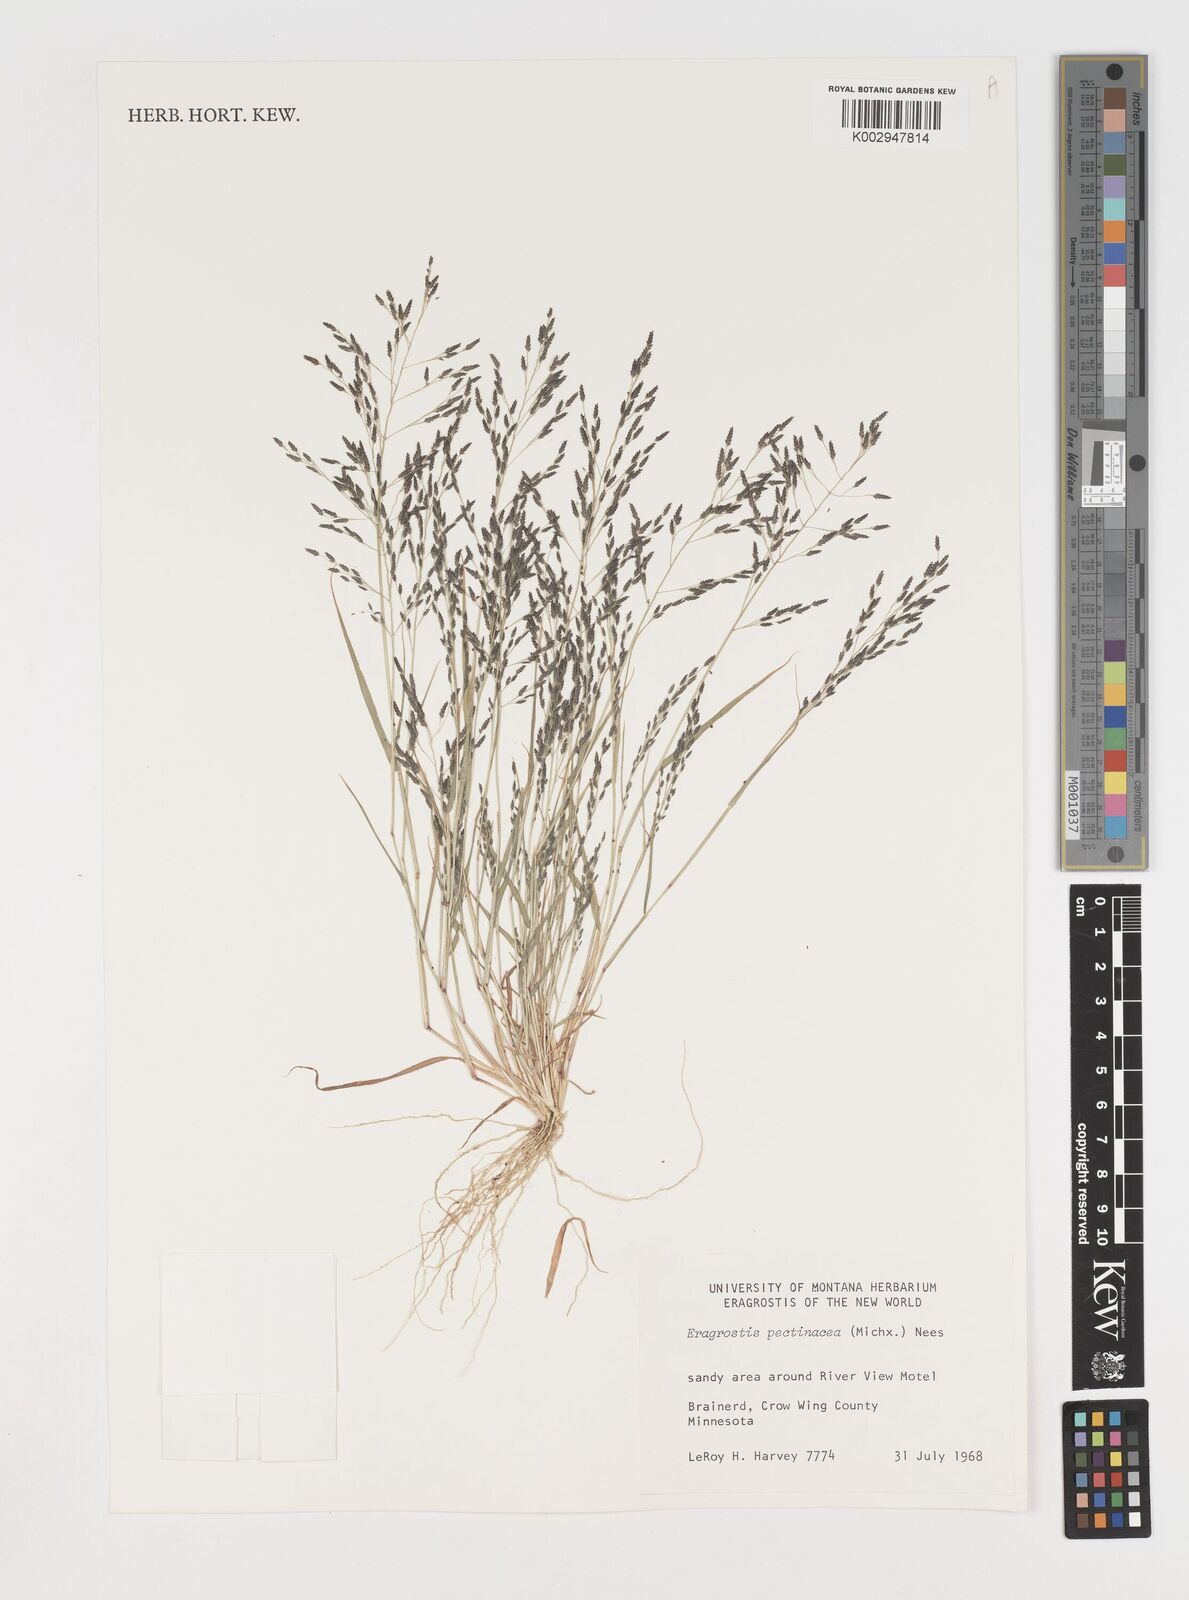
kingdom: Plantae
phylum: Tracheophyta
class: Liliopsida
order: Poales
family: Poaceae
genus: Eragrostis
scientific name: Eragrostis pectinacea
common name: Tufted lovegrass
